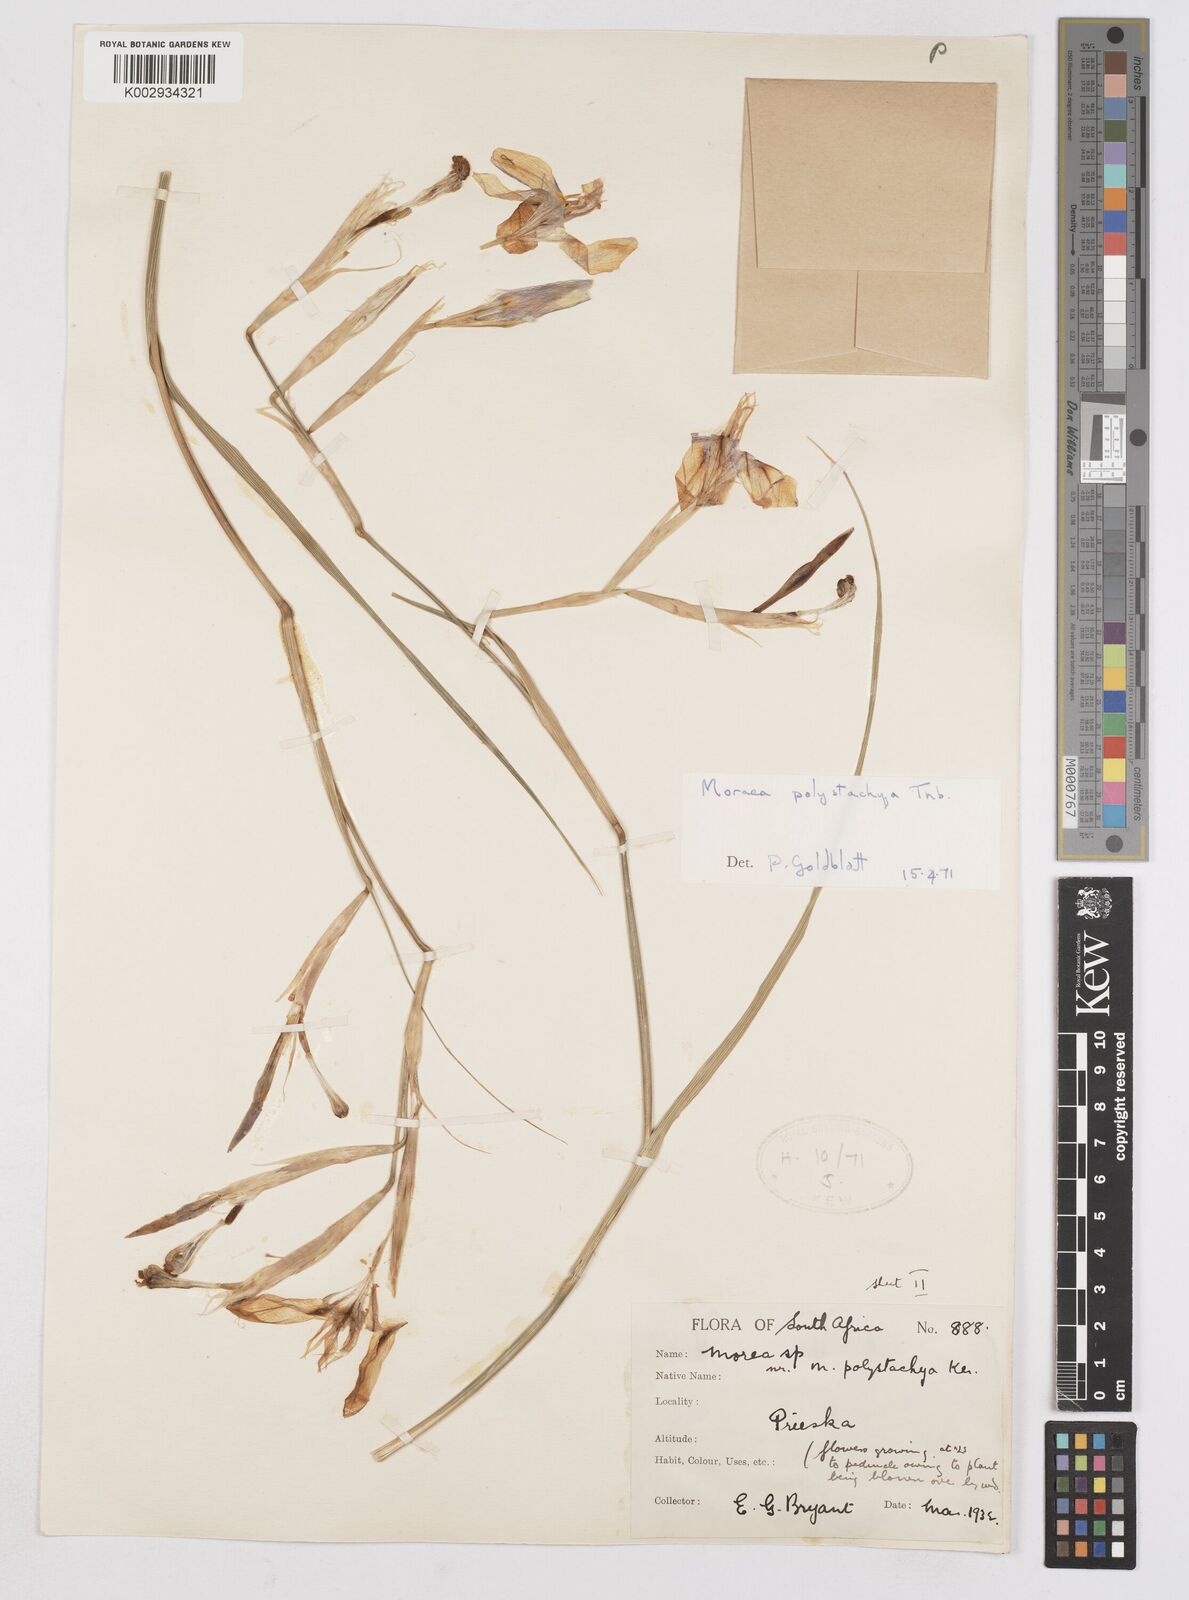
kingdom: Plantae
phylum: Tracheophyta
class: Liliopsida
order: Asparagales
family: Iridaceae
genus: Moraea
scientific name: Moraea polystachya
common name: Blue-tulip
